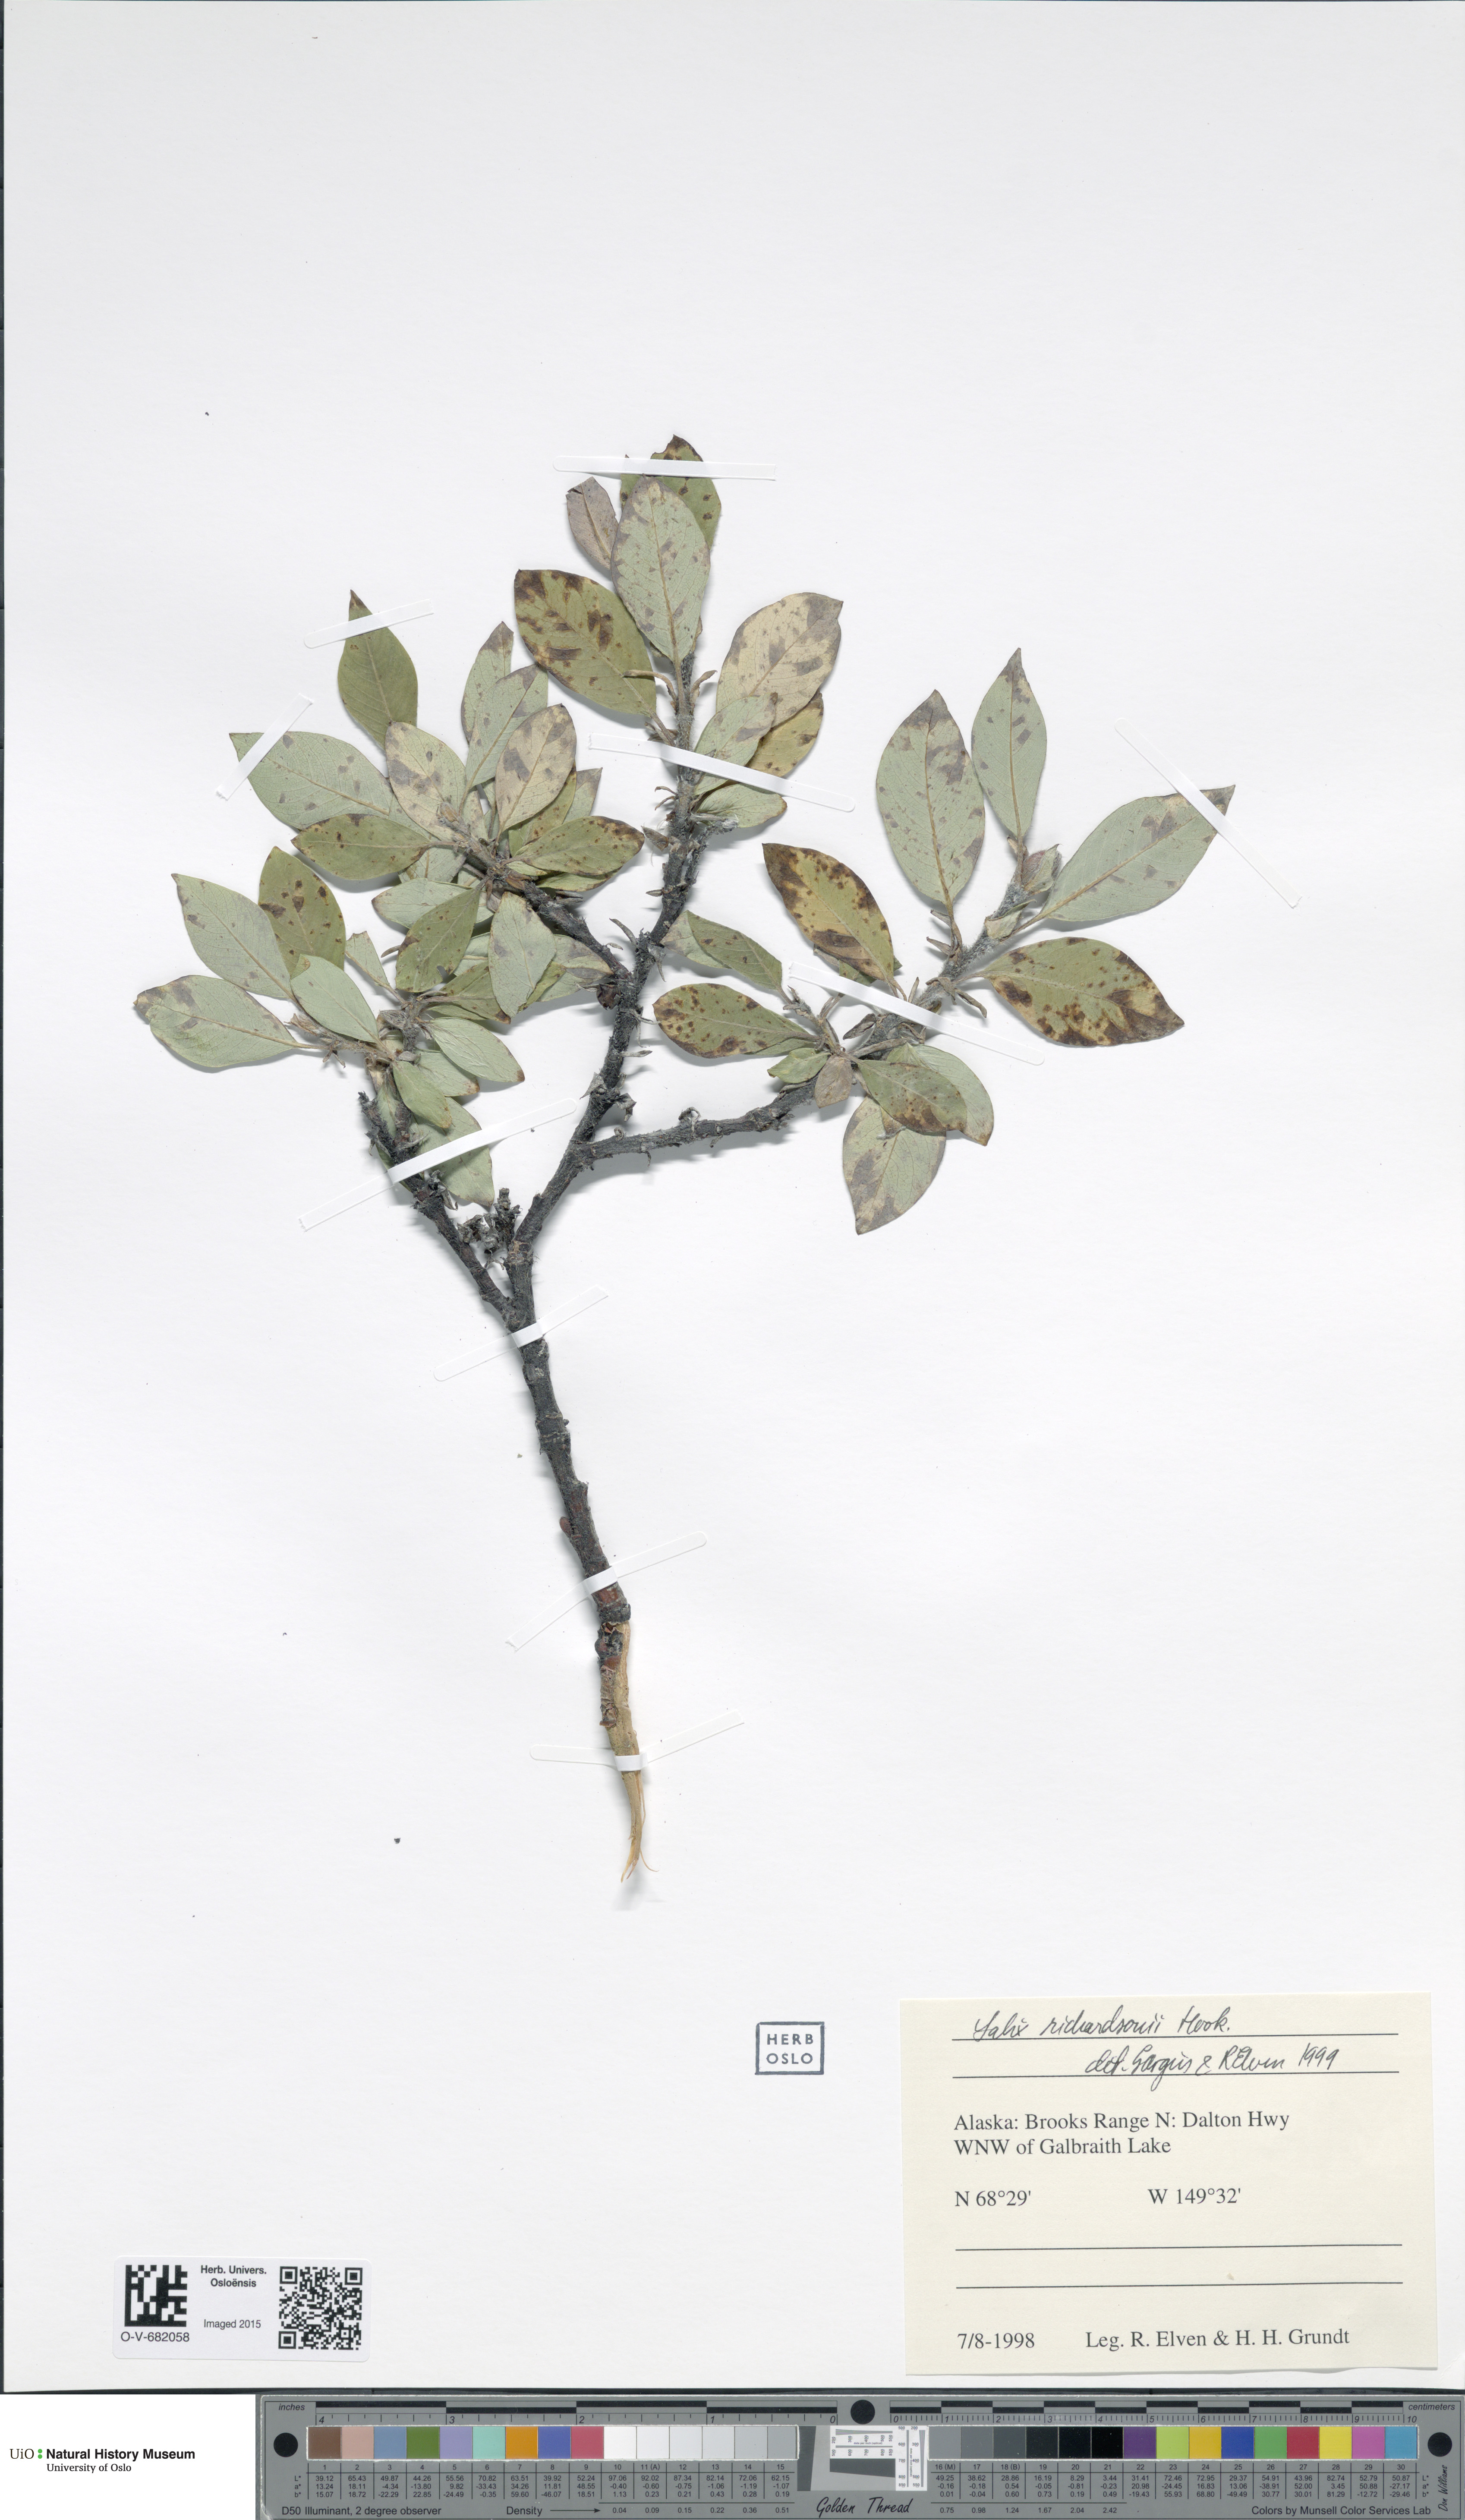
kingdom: Plantae
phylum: Tracheophyta
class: Magnoliopsida
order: Malpighiales
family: Salicaceae
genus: Salix
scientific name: Salix richardsonii
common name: Richardson’s willow
